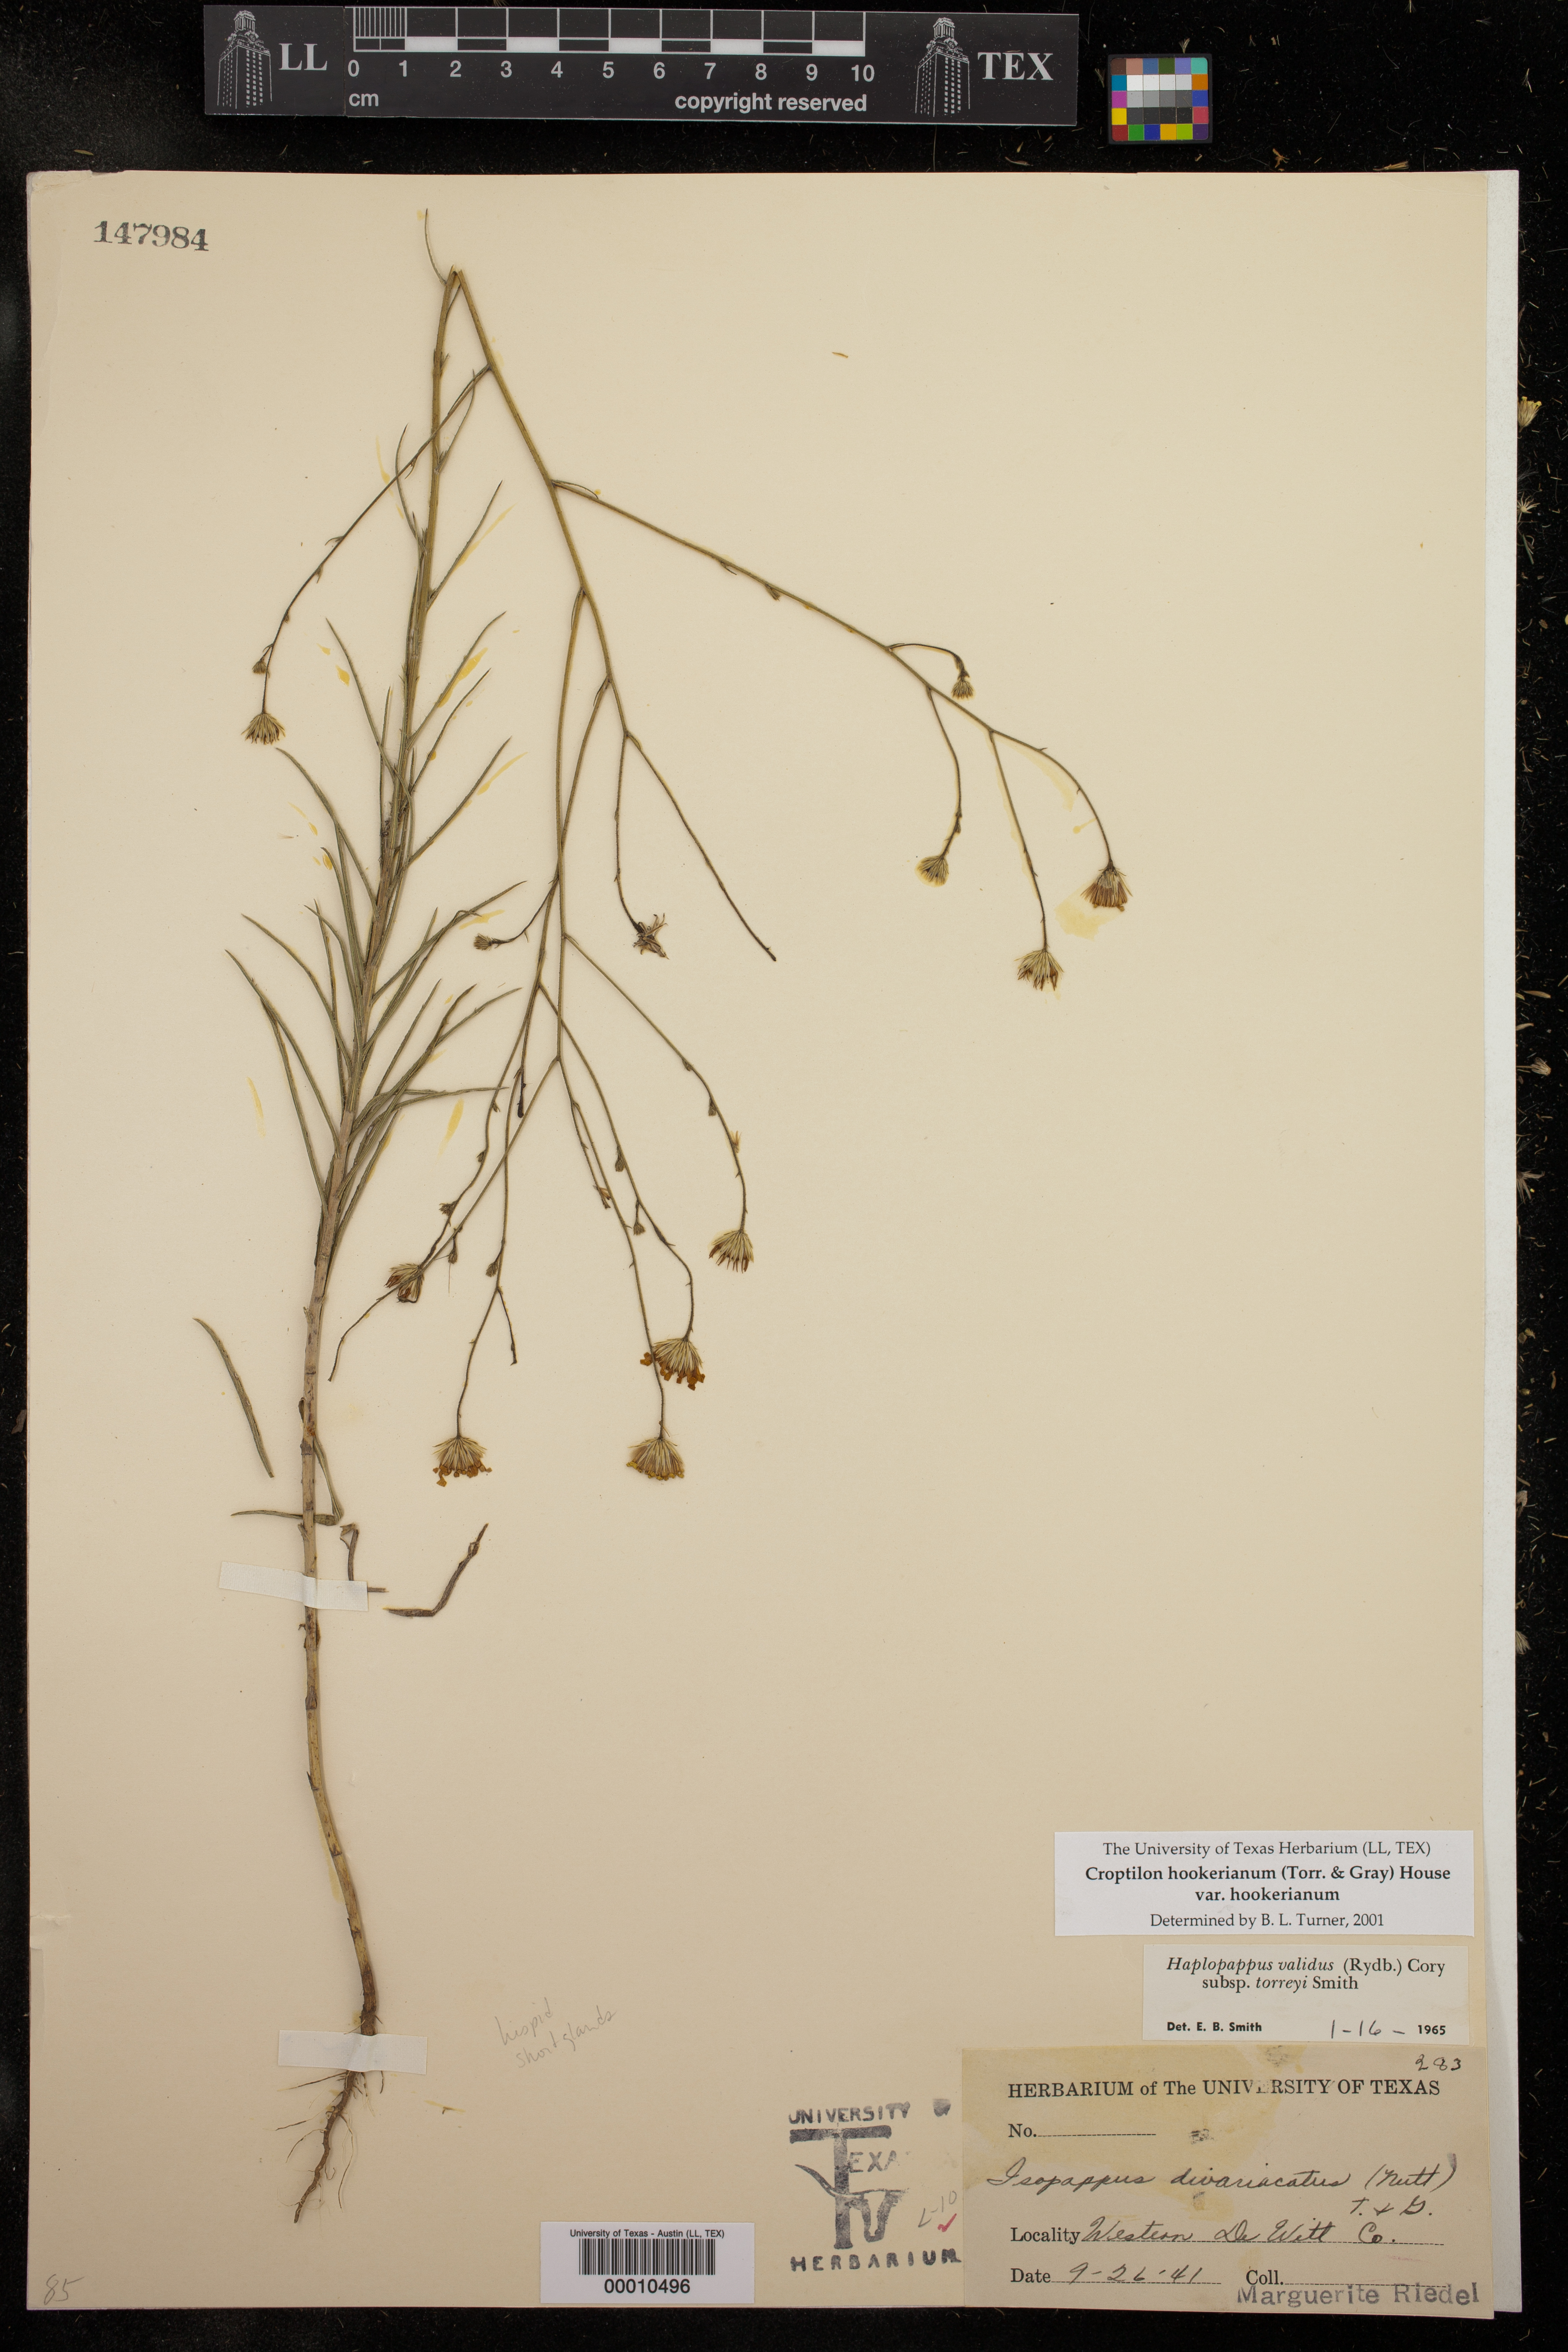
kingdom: Plantae
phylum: Tracheophyta
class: Magnoliopsida
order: Asterales
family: Asteraceae
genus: Croptilon
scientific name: Croptilon hookerianum
